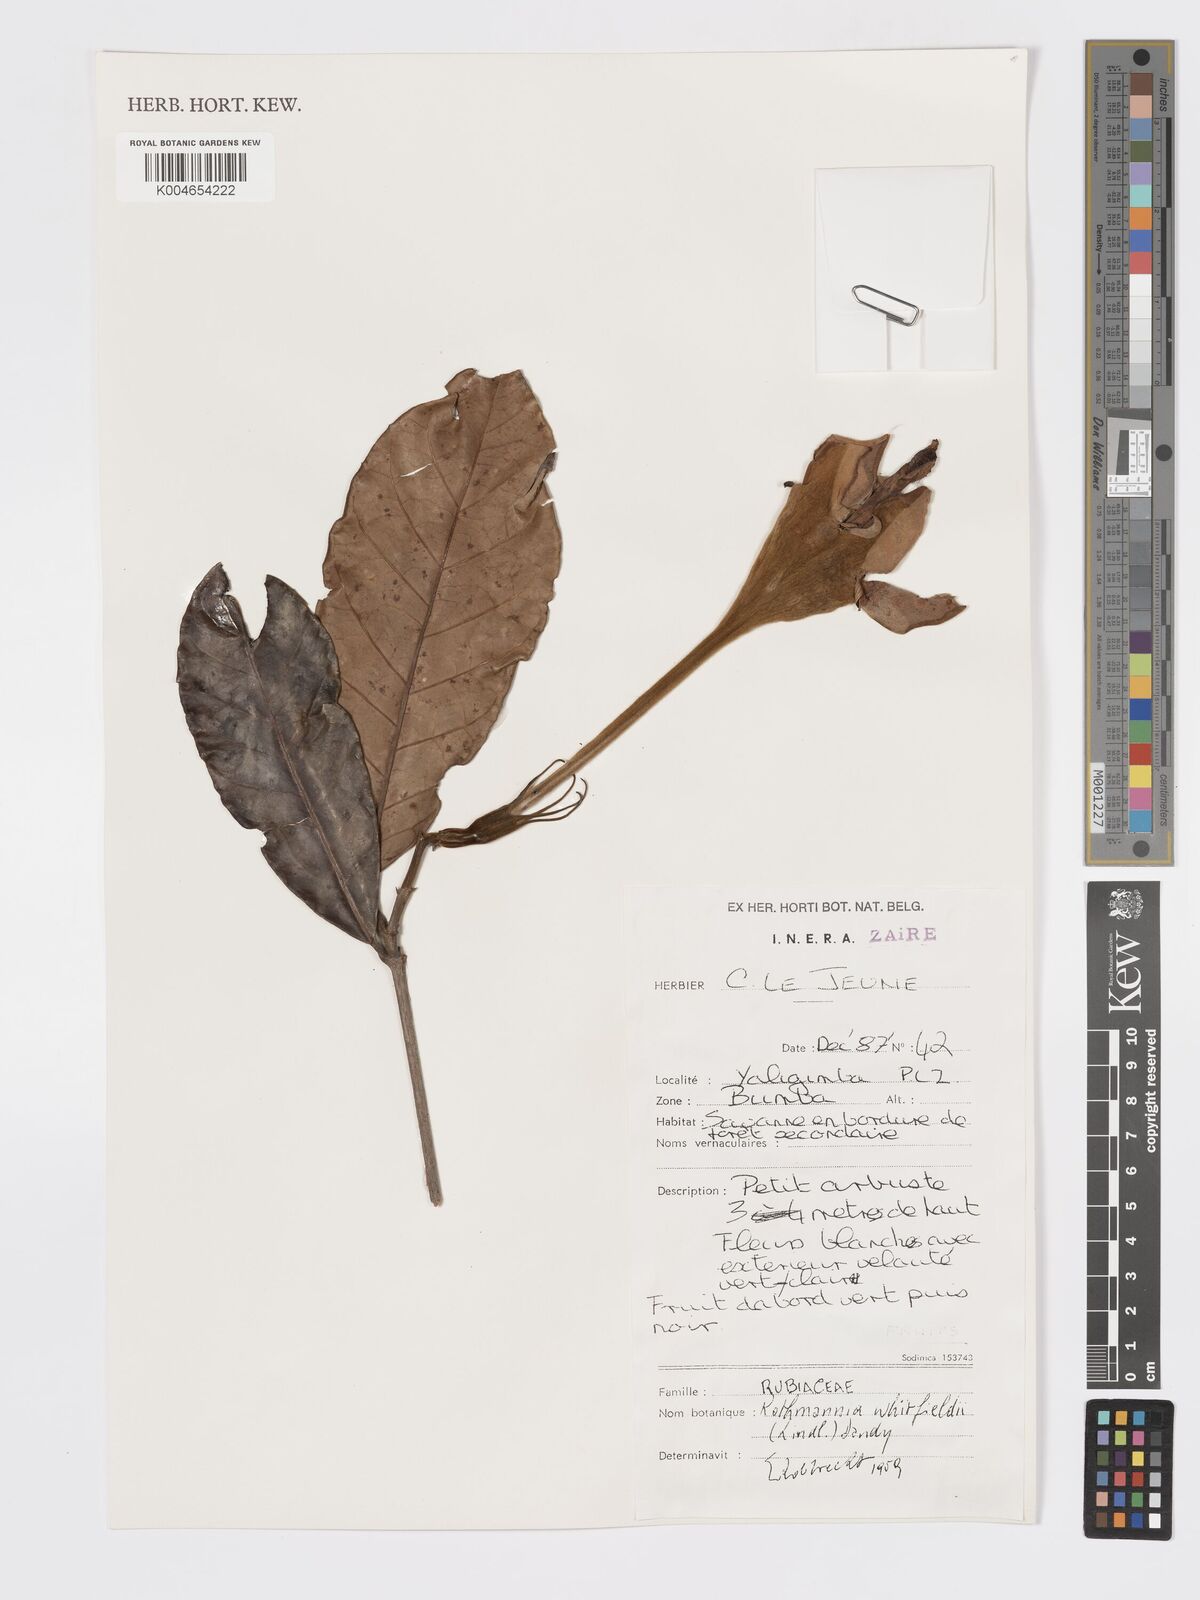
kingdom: Plantae
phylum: Tracheophyta
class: Magnoliopsida
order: Gentianales
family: Rubiaceae
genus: Rothmannia
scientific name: Rothmannia whitfieldii
